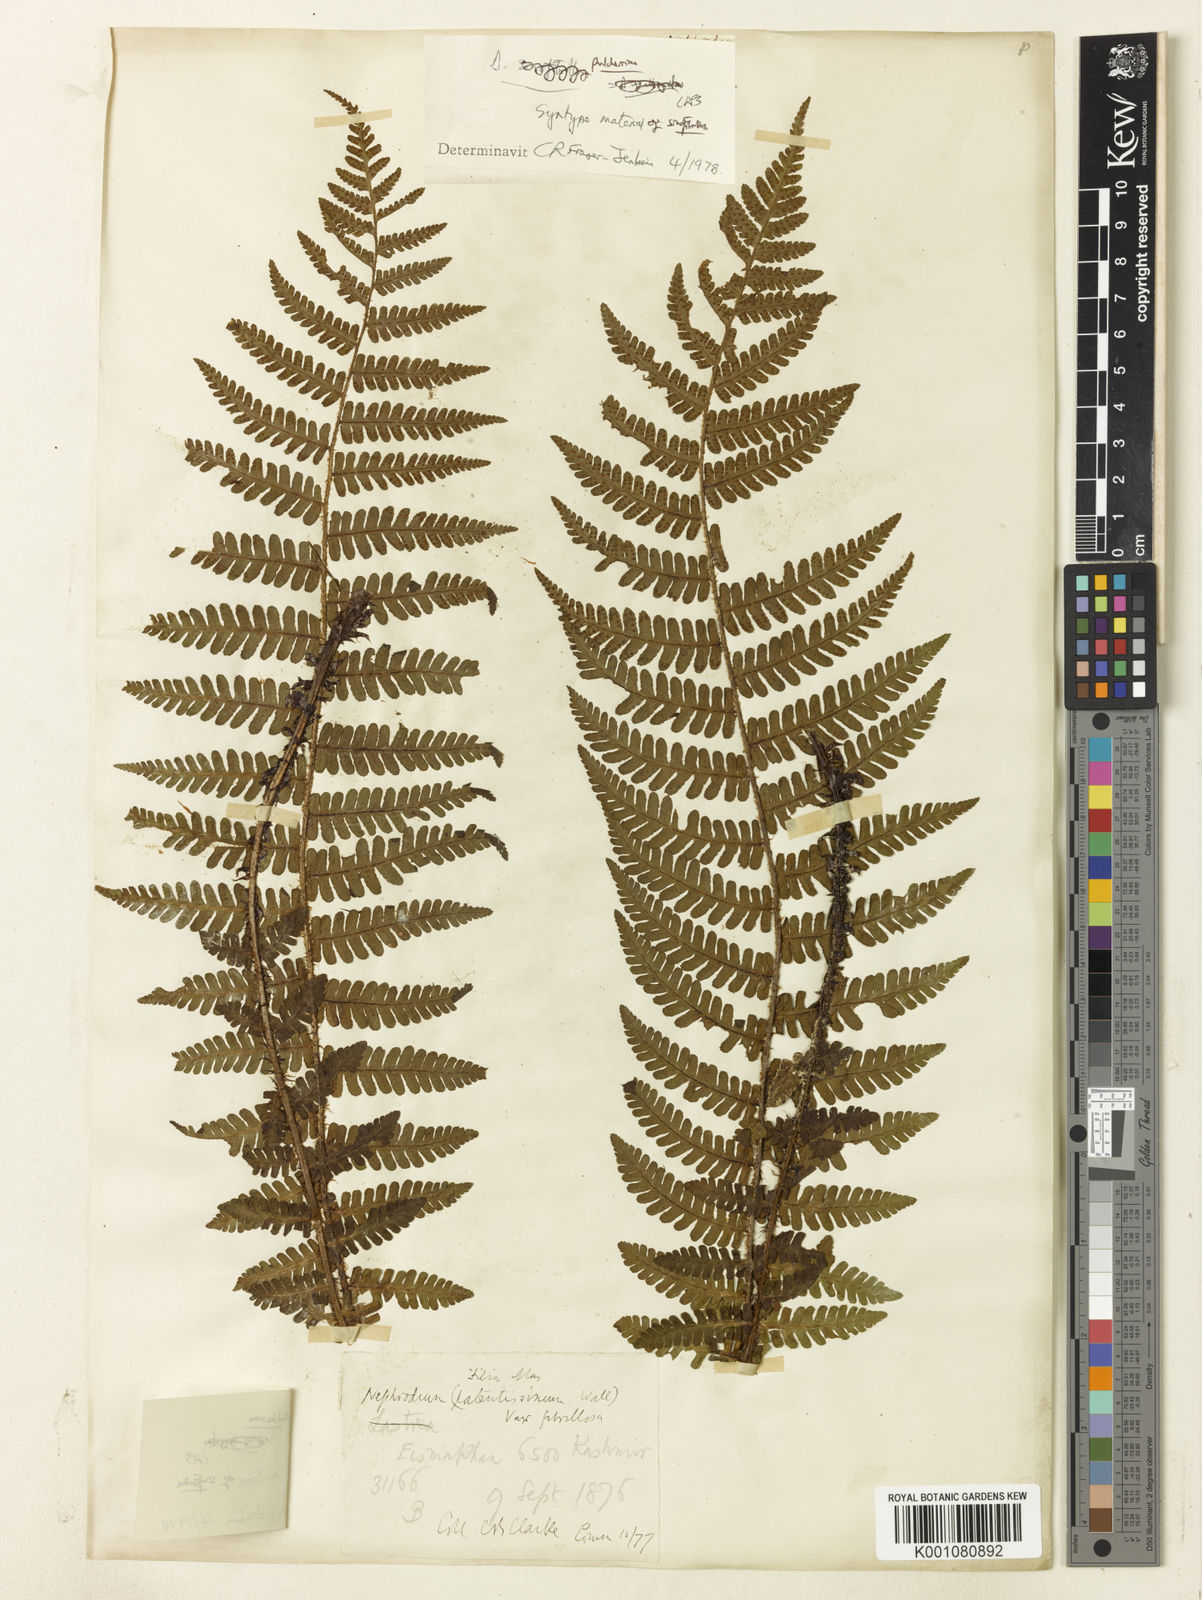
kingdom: Plantae
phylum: Tracheophyta
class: Polypodiopsida
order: Polypodiales
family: Dryopteridaceae
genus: Dryopteris
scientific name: Dryopteris xanthomelas
